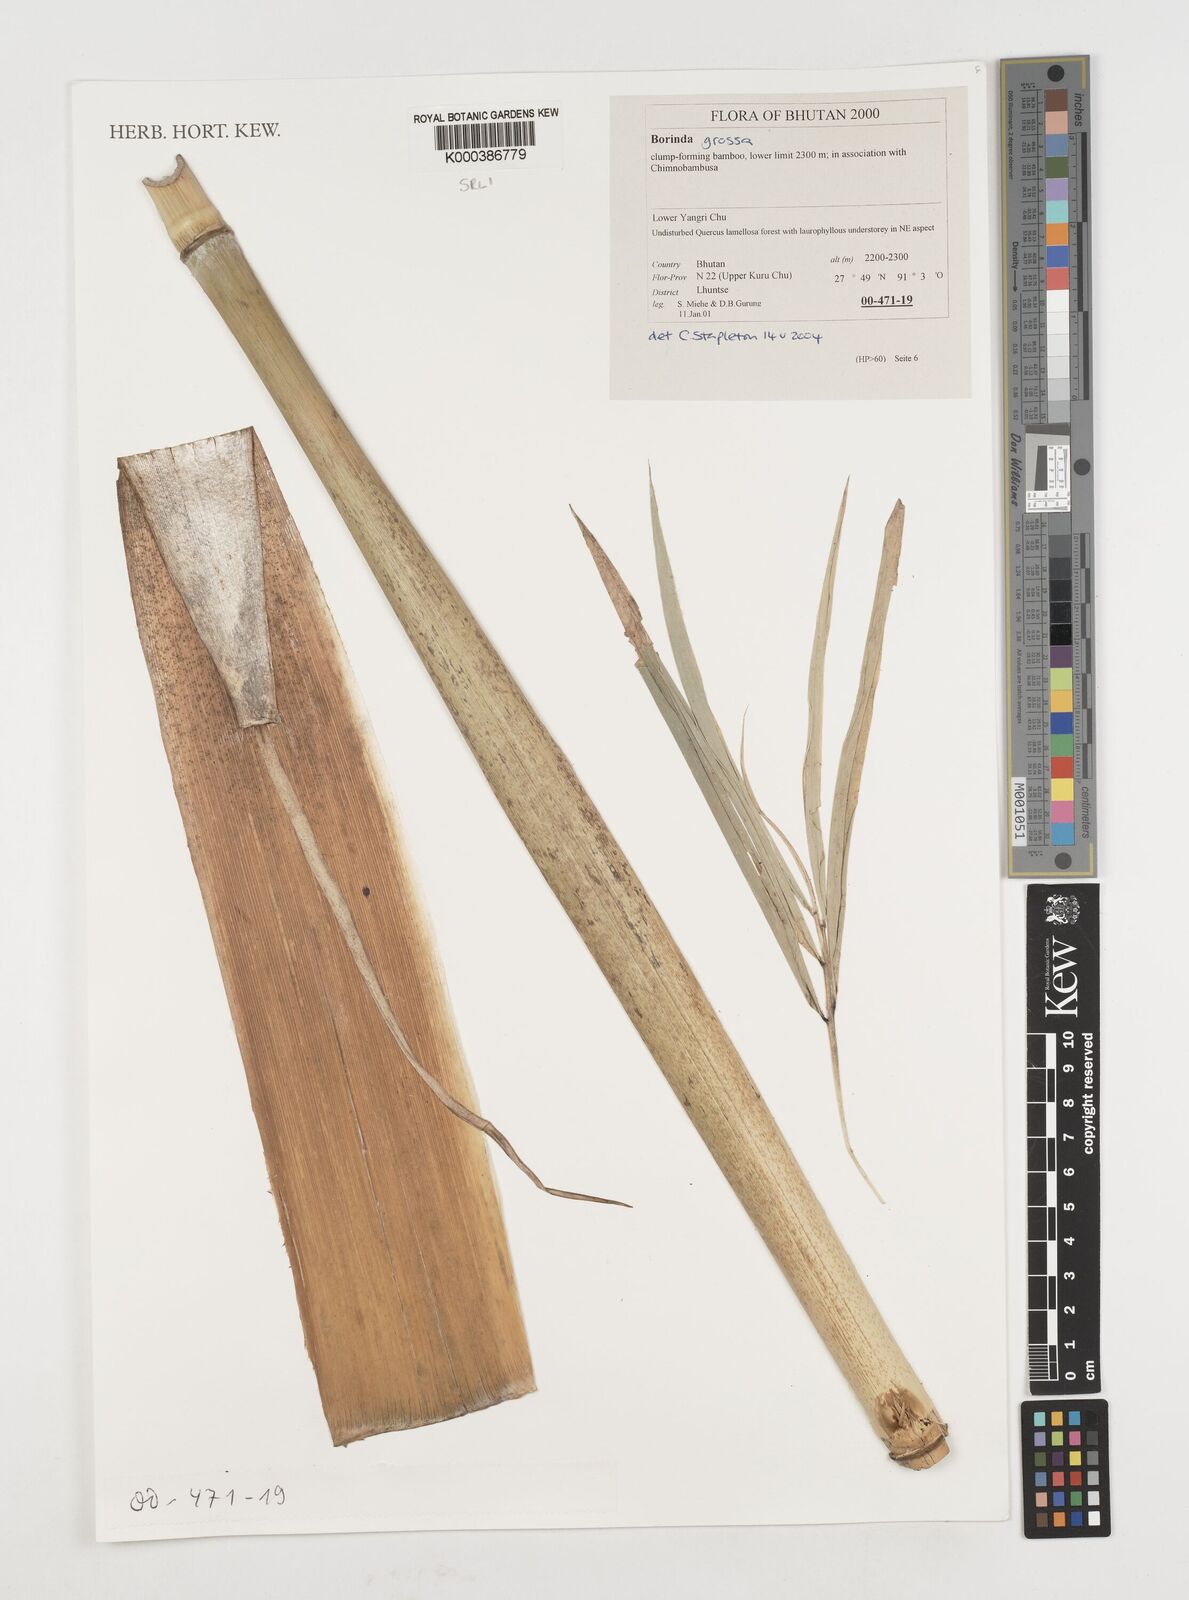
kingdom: Plantae
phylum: Tracheophyta
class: Liliopsida
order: Poales
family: Poaceae
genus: Borinda
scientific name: Borinda grossa
